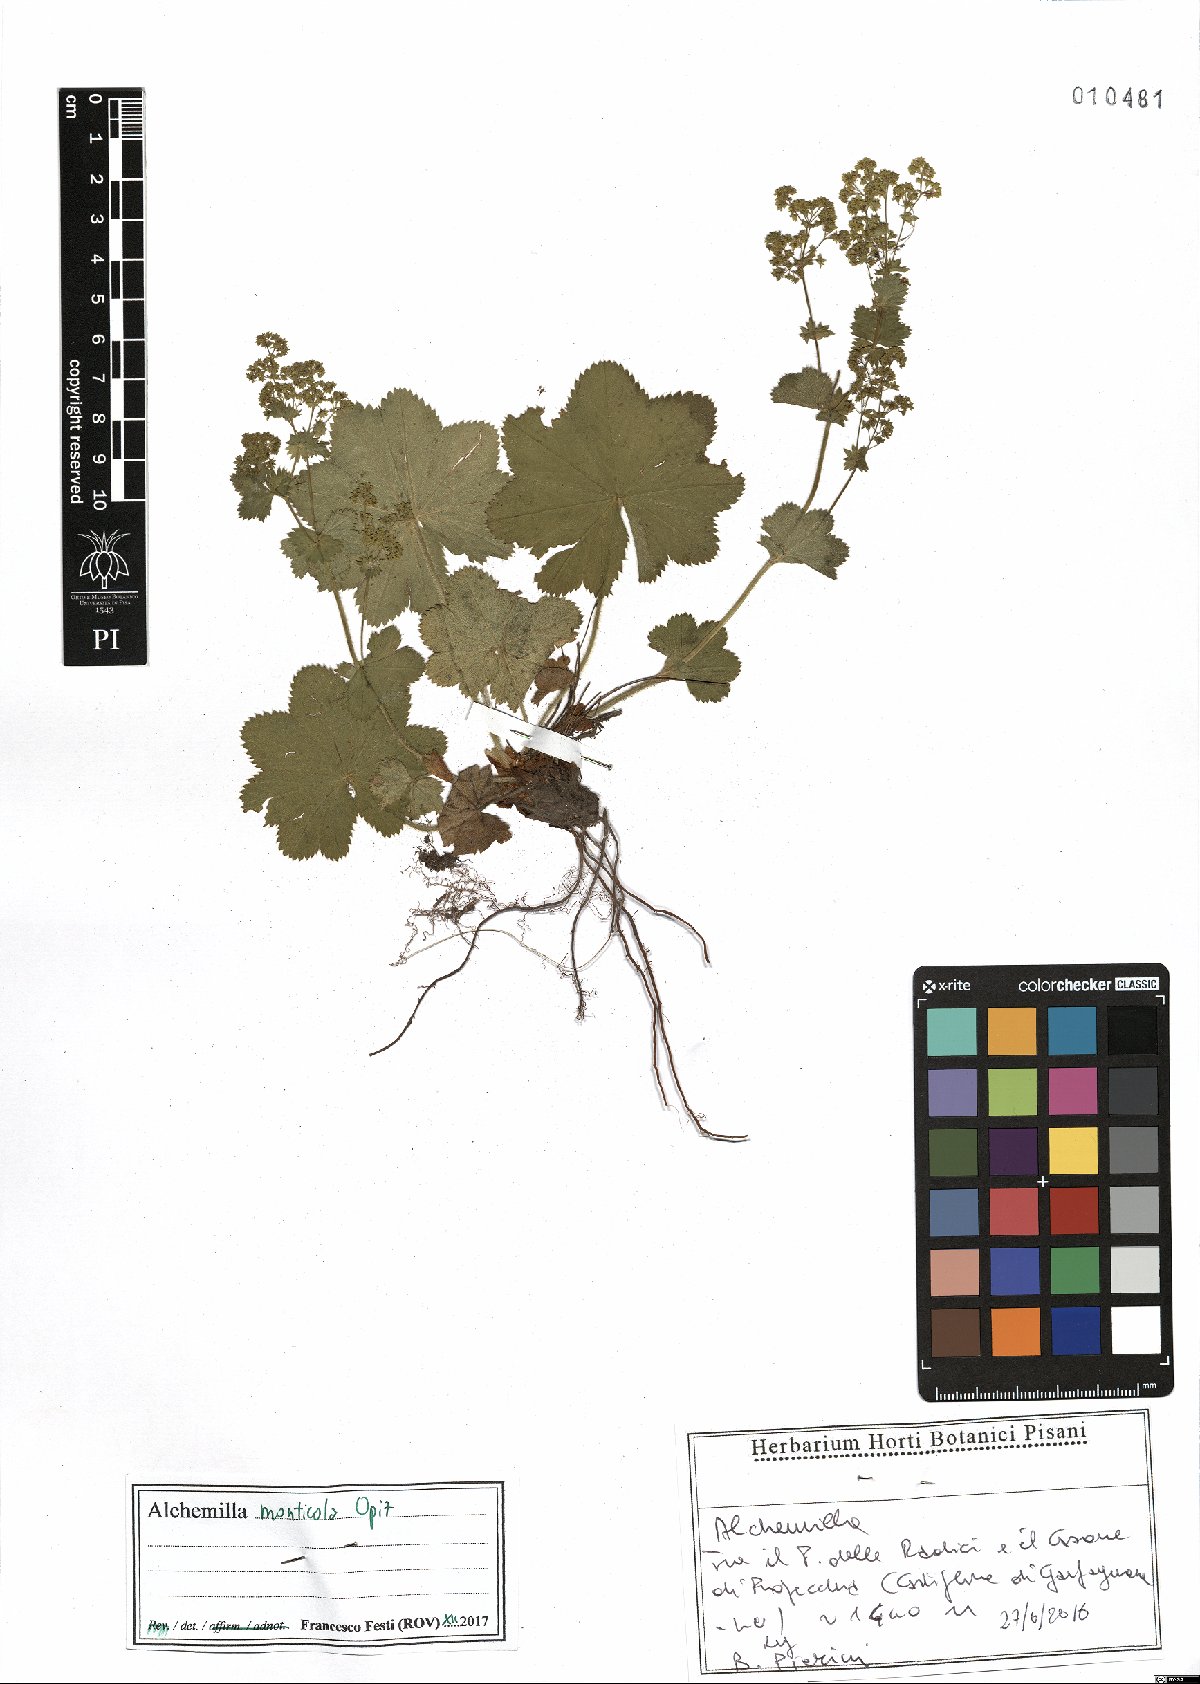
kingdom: Plantae
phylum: Tracheophyta
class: Magnoliopsida
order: Rosales
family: Rosaceae
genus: Alchemilla
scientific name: Alchemilla monticola
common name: Hairy lady's mantle
